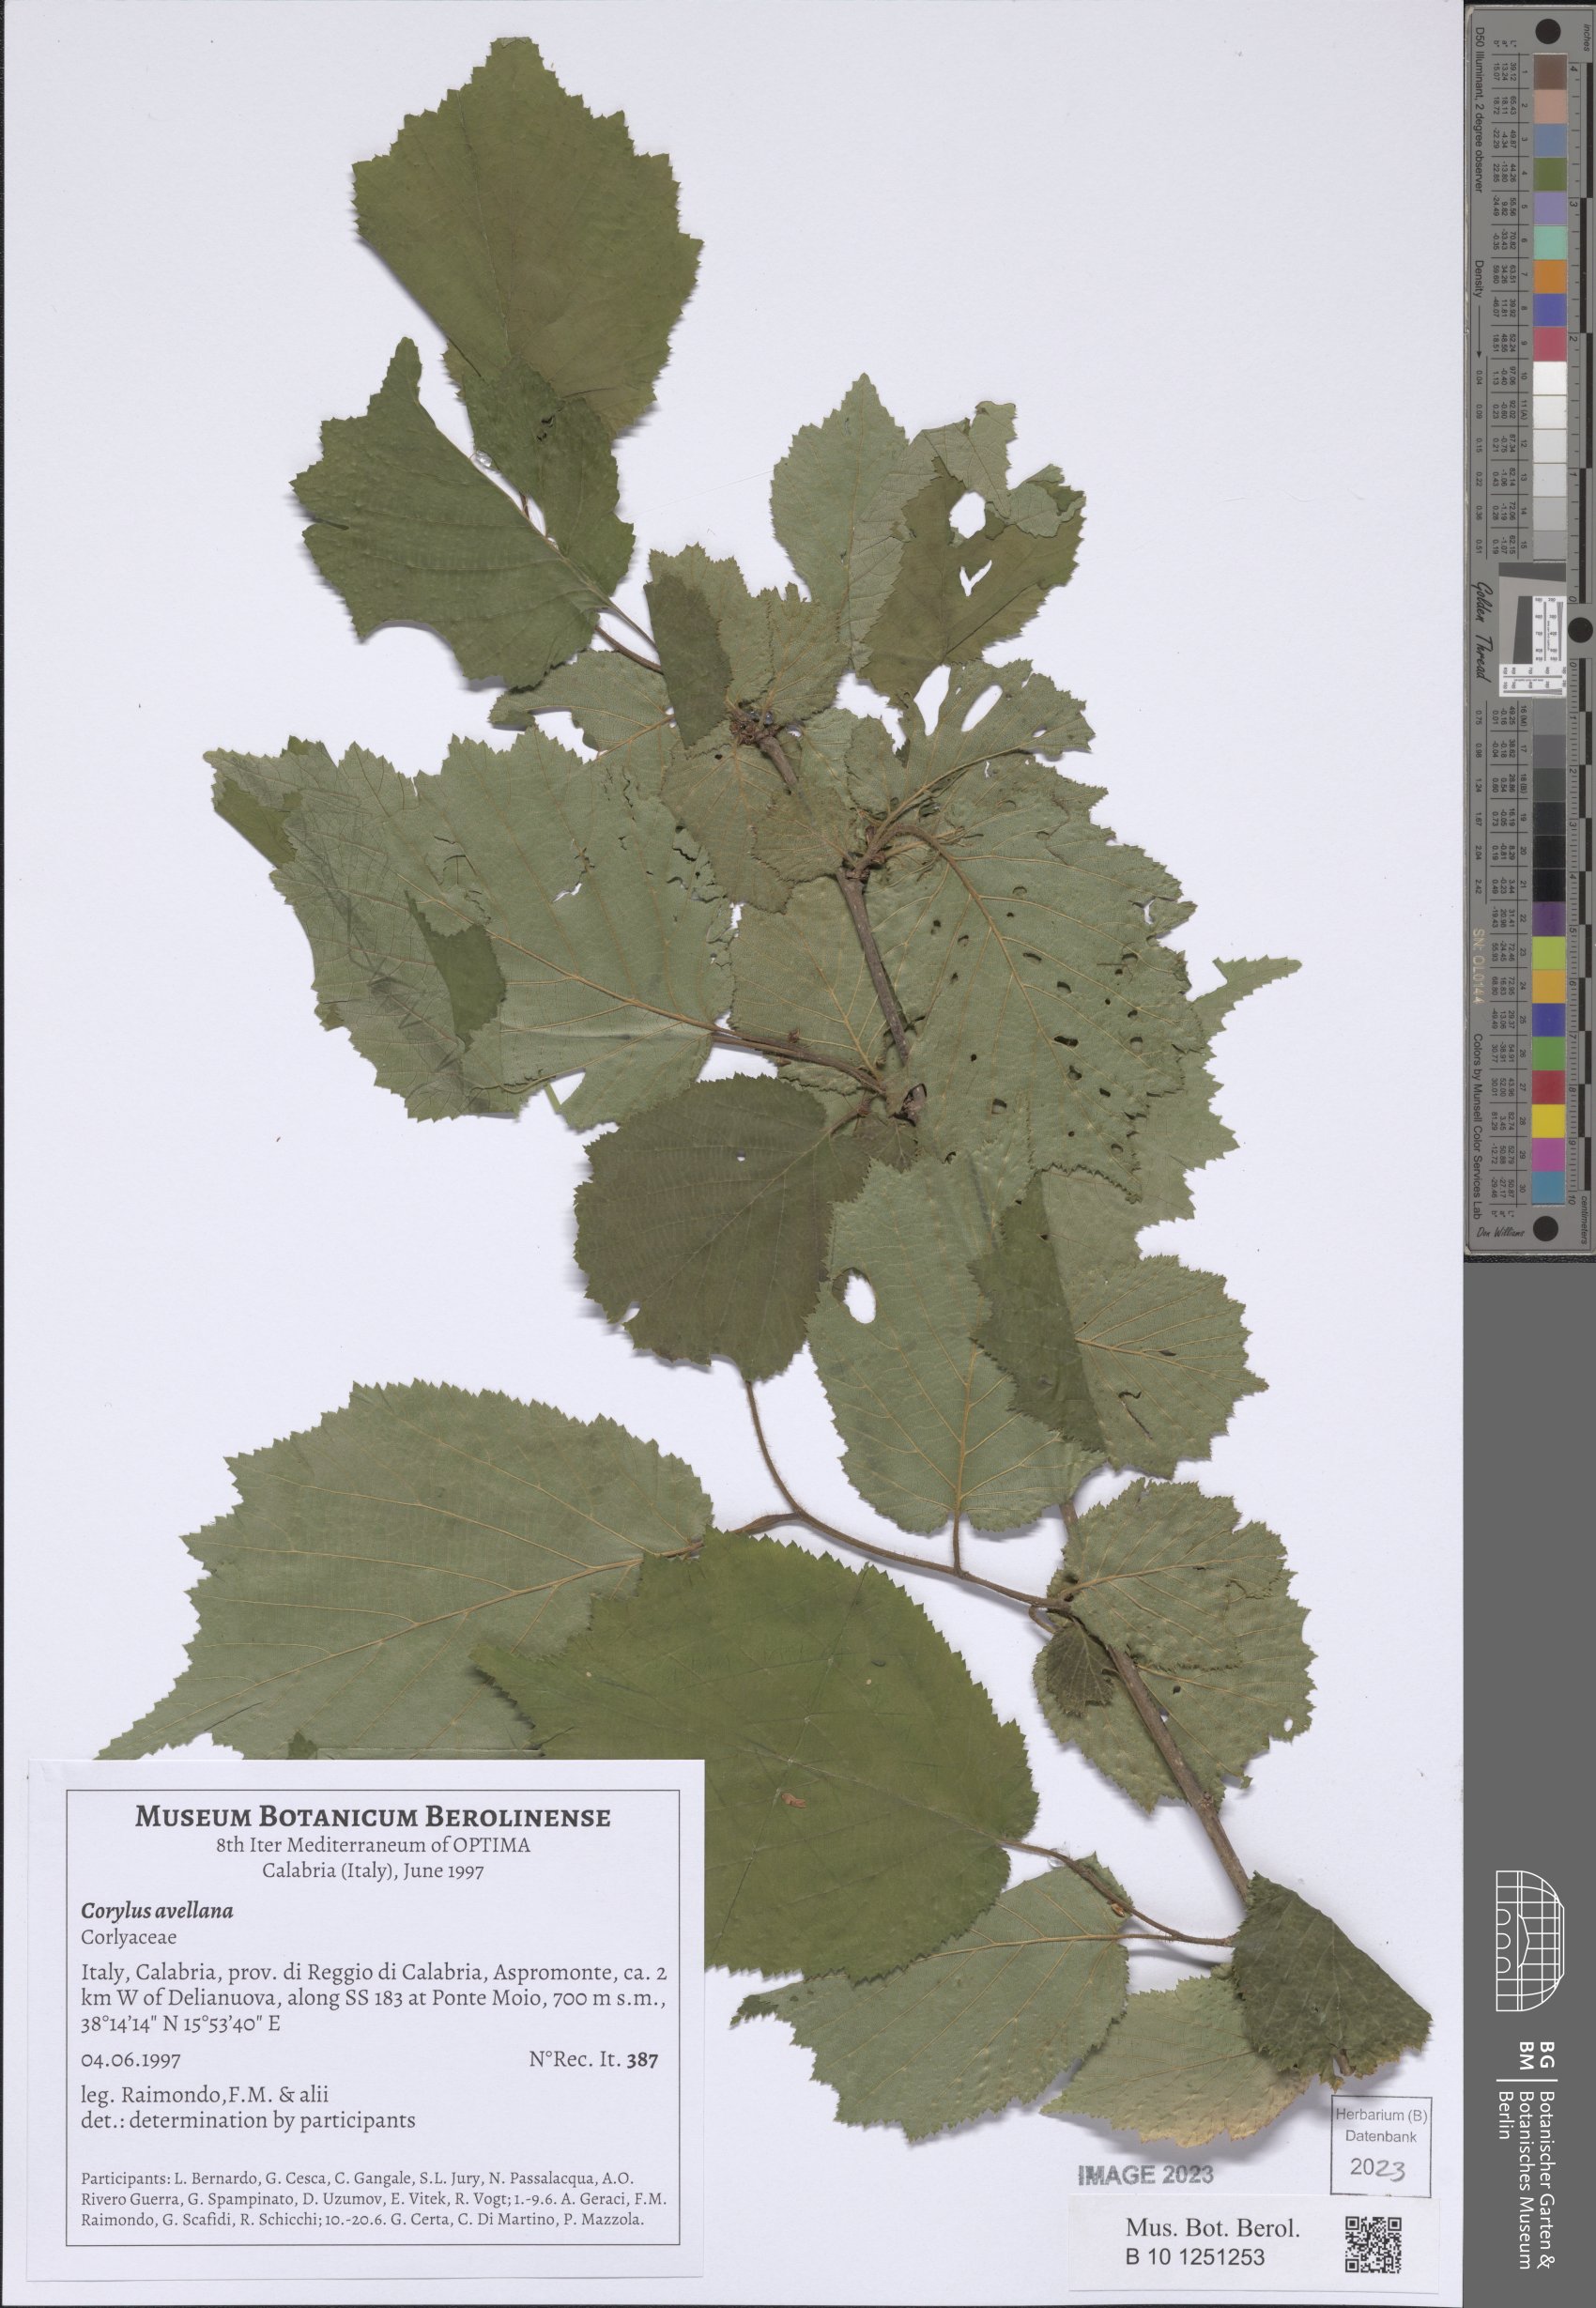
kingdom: Plantae
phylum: Tracheophyta
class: Magnoliopsida
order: Fagales
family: Betulaceae
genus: Corylus
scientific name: Corylus avellana
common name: European hazel
